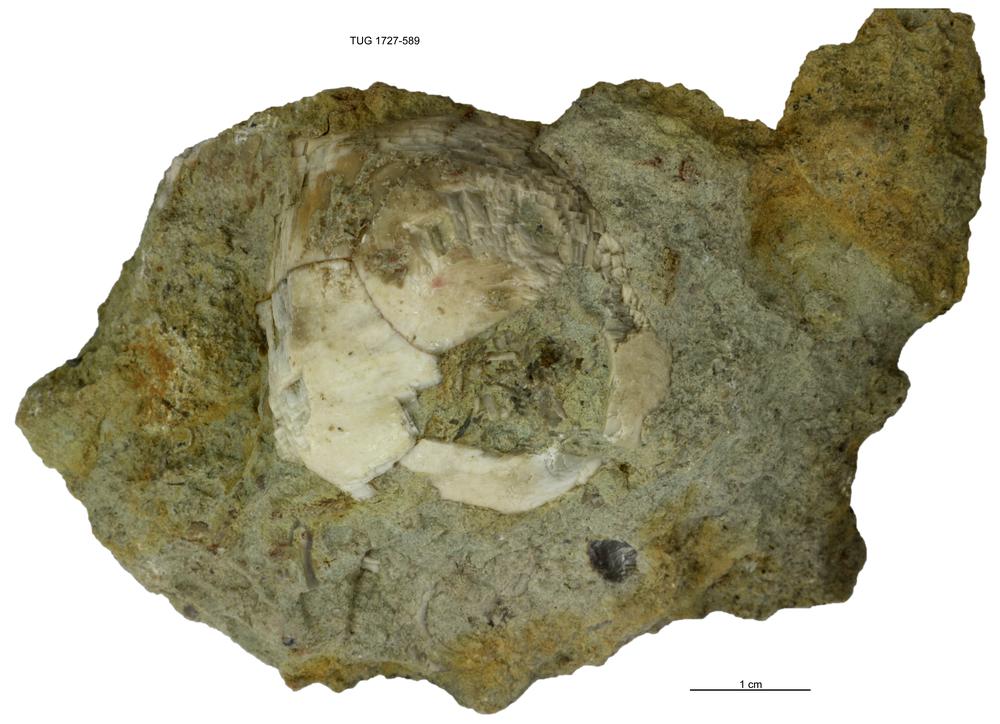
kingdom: Animalia
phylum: Echinodermata
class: Crinoidea
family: Hybocrinidae
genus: Hoplocrinus
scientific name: Hoplocrinus
